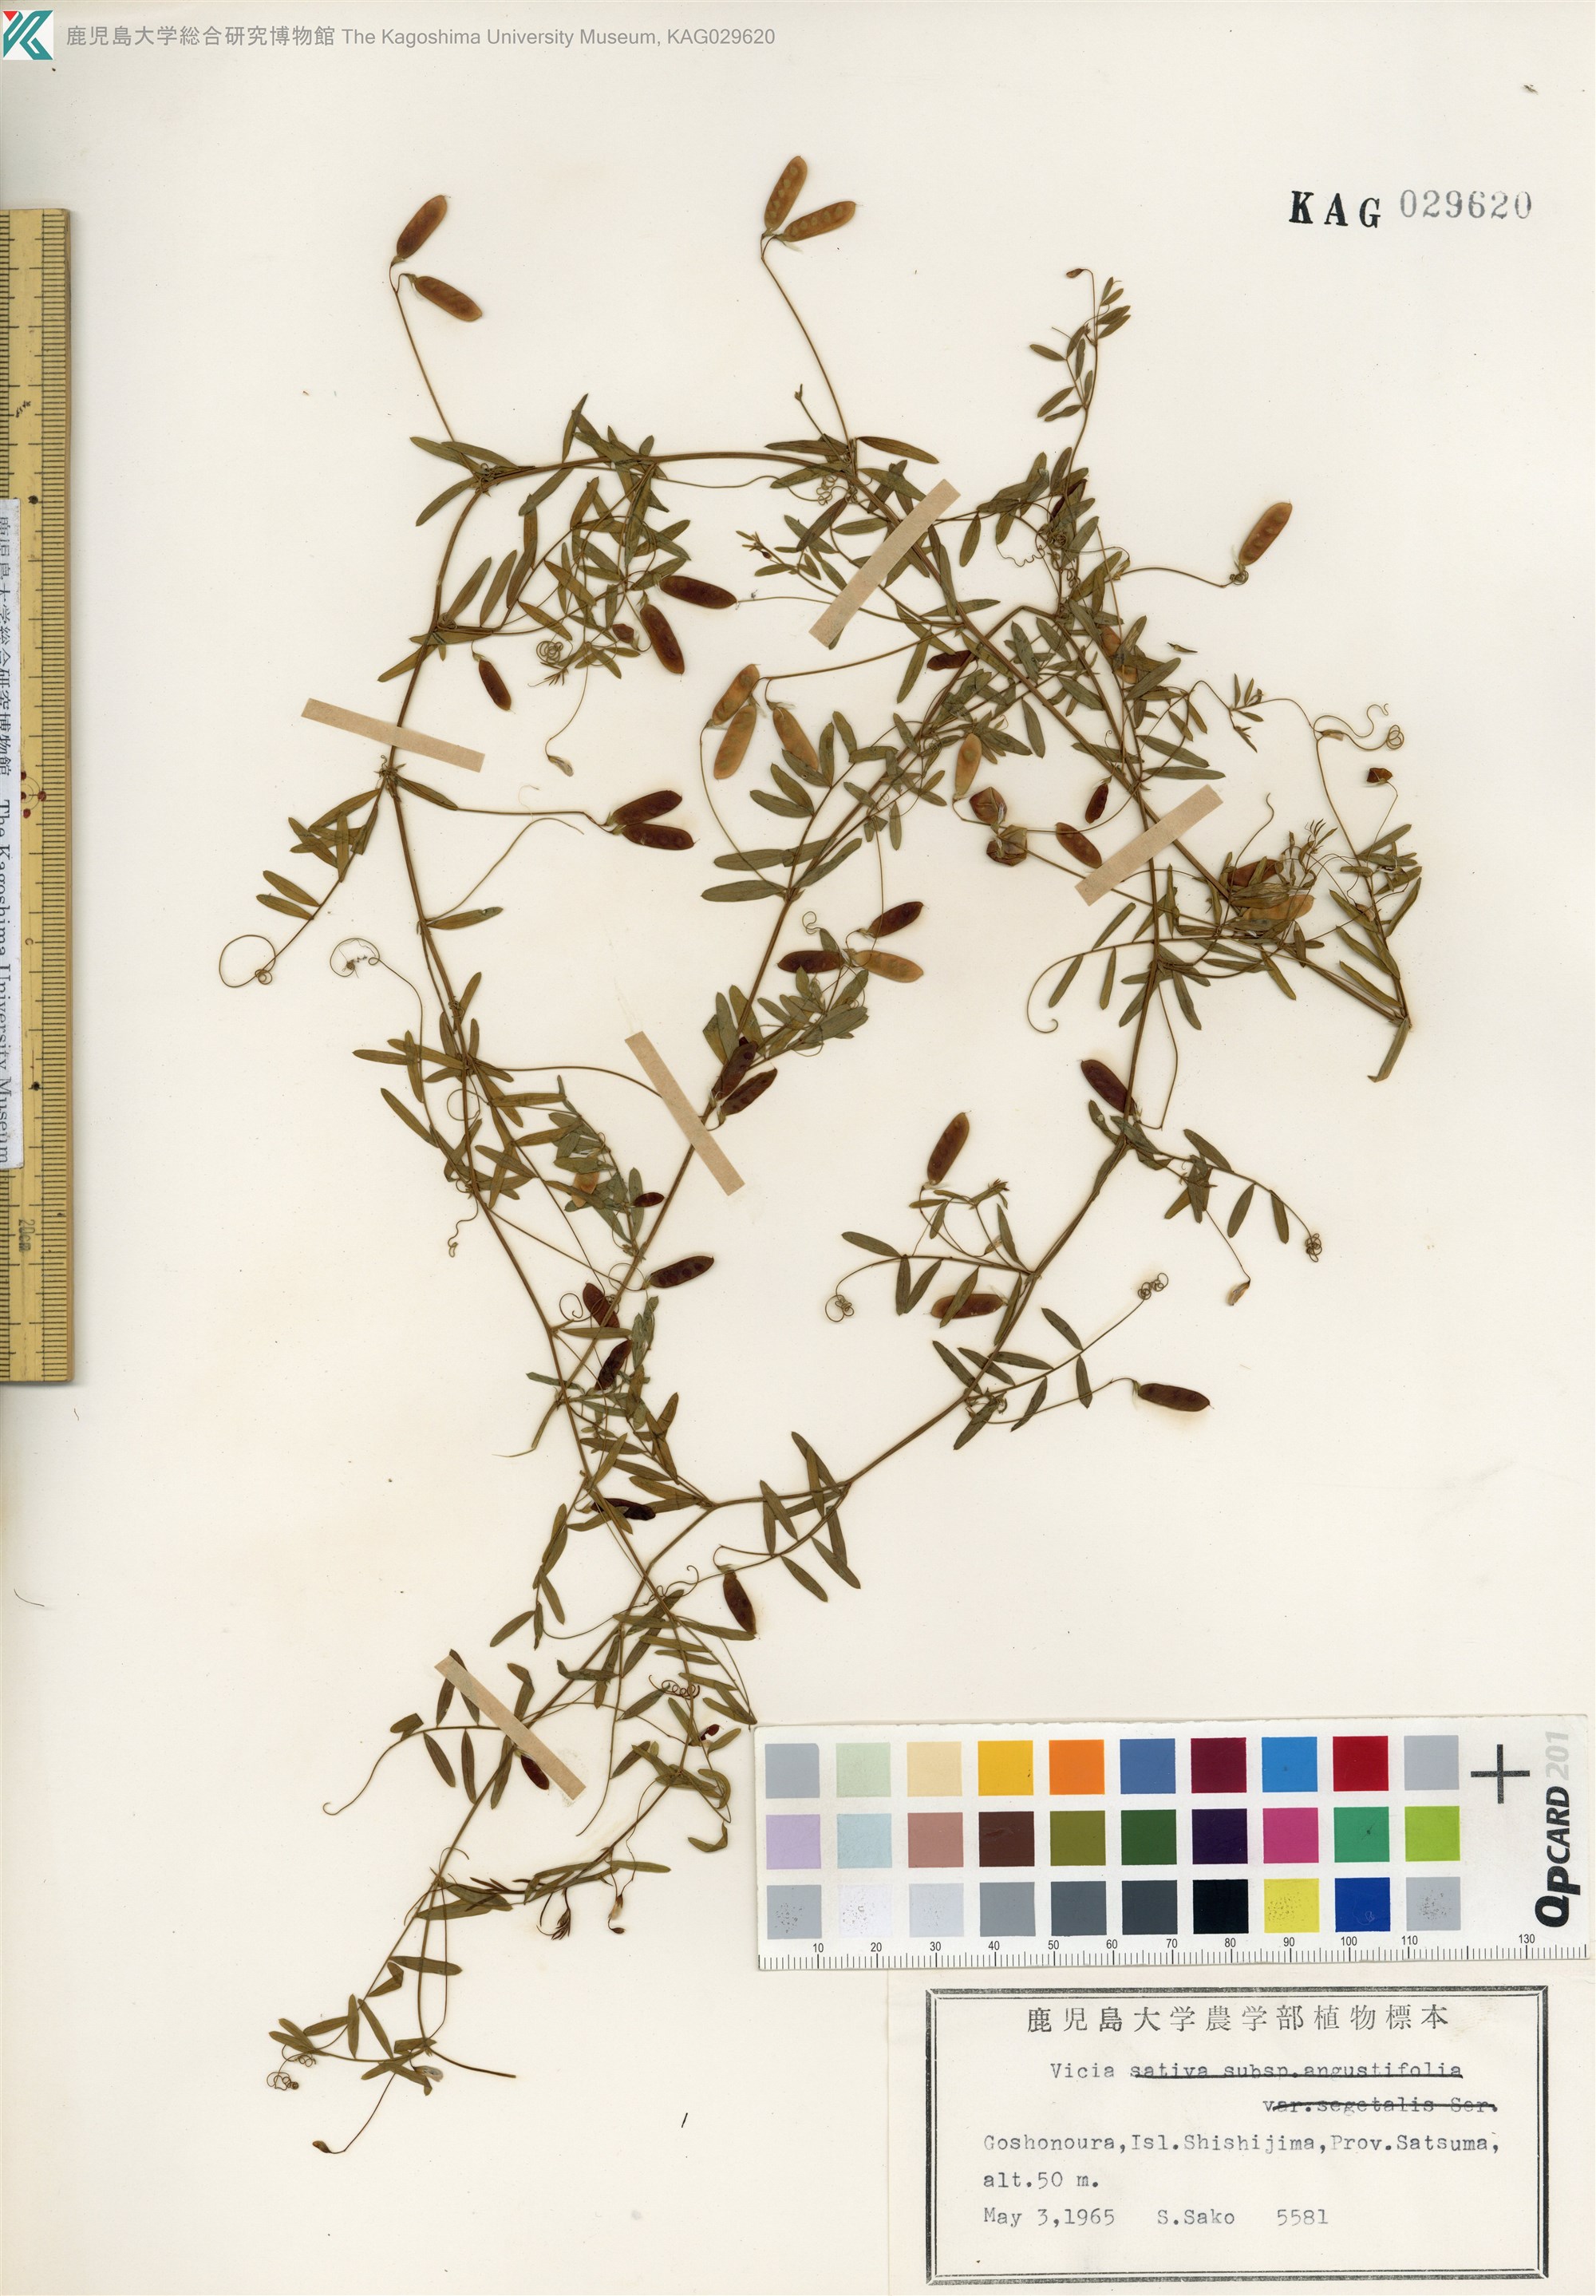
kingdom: Plantae
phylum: Tracheophyta
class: Magnoliopsida
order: Fabales
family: Fabaceae
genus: Vicia
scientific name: Vicia tetrasperma
